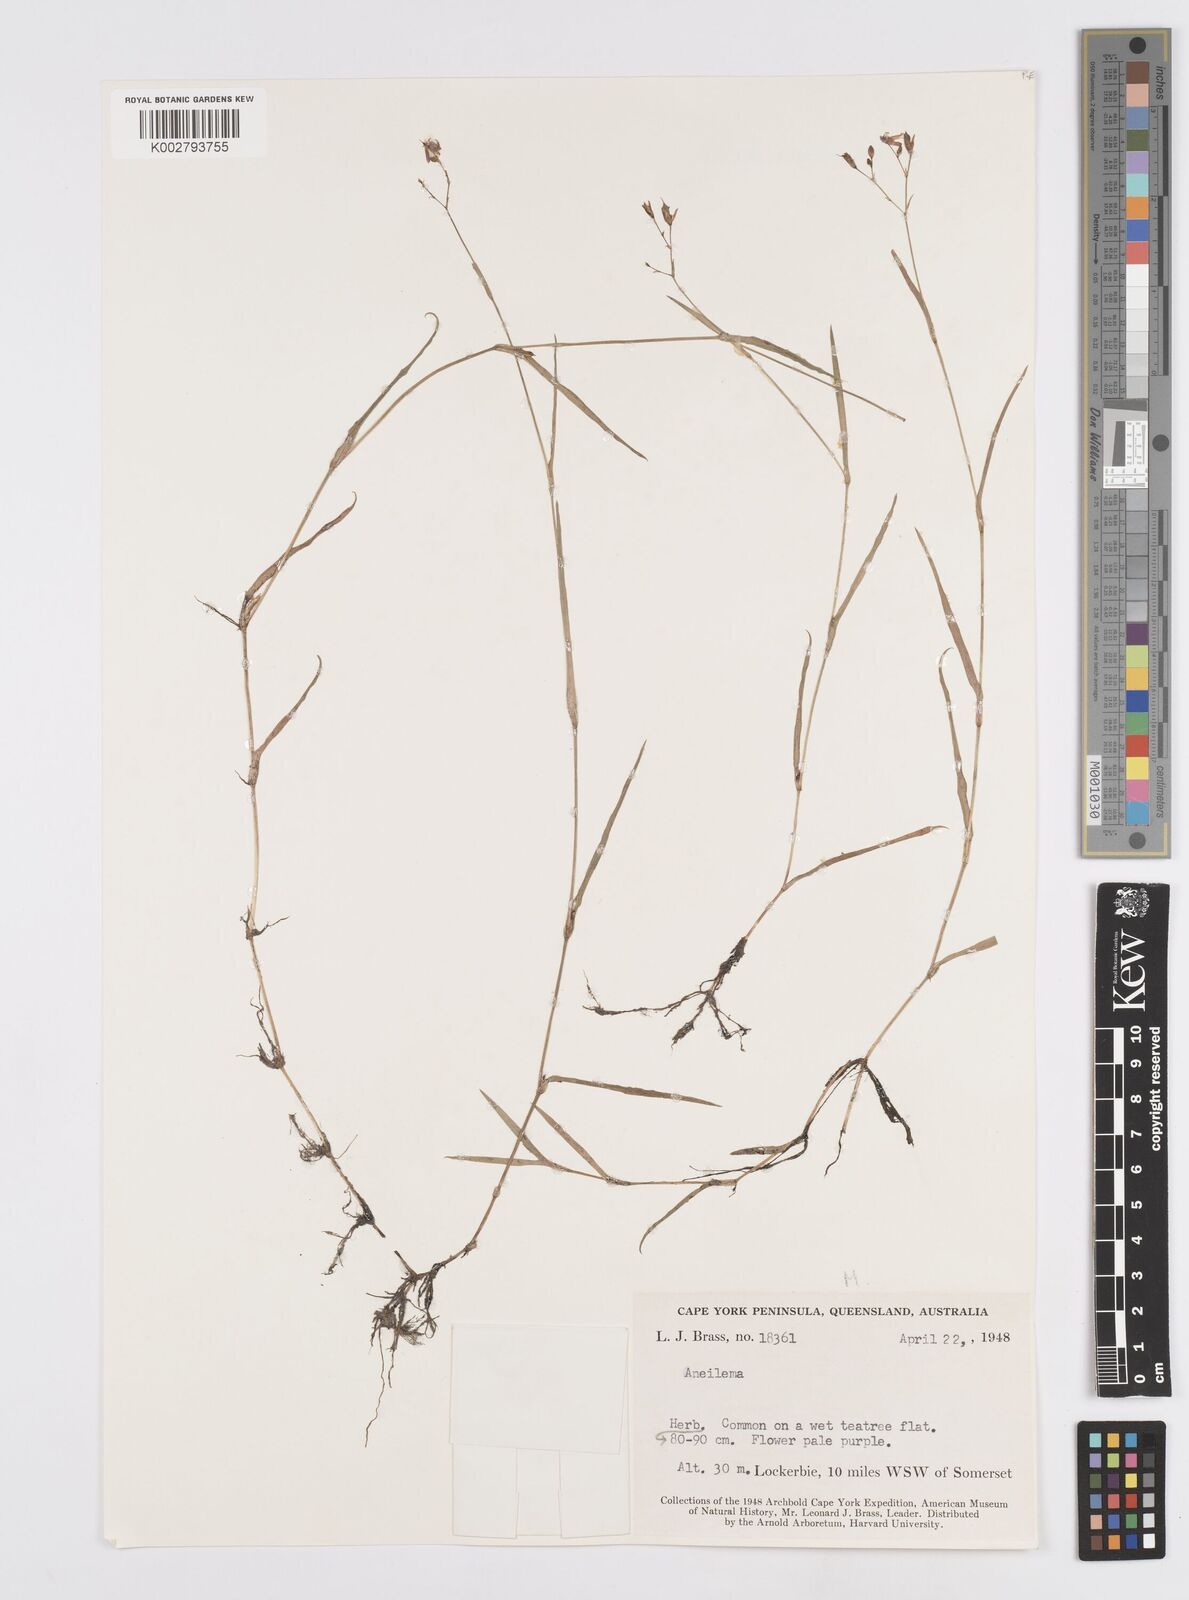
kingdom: Plantae
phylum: Tracheophyta
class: Liliopsida
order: Commelinales
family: Commelinaceae
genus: Murdannia
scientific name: Murdannia
